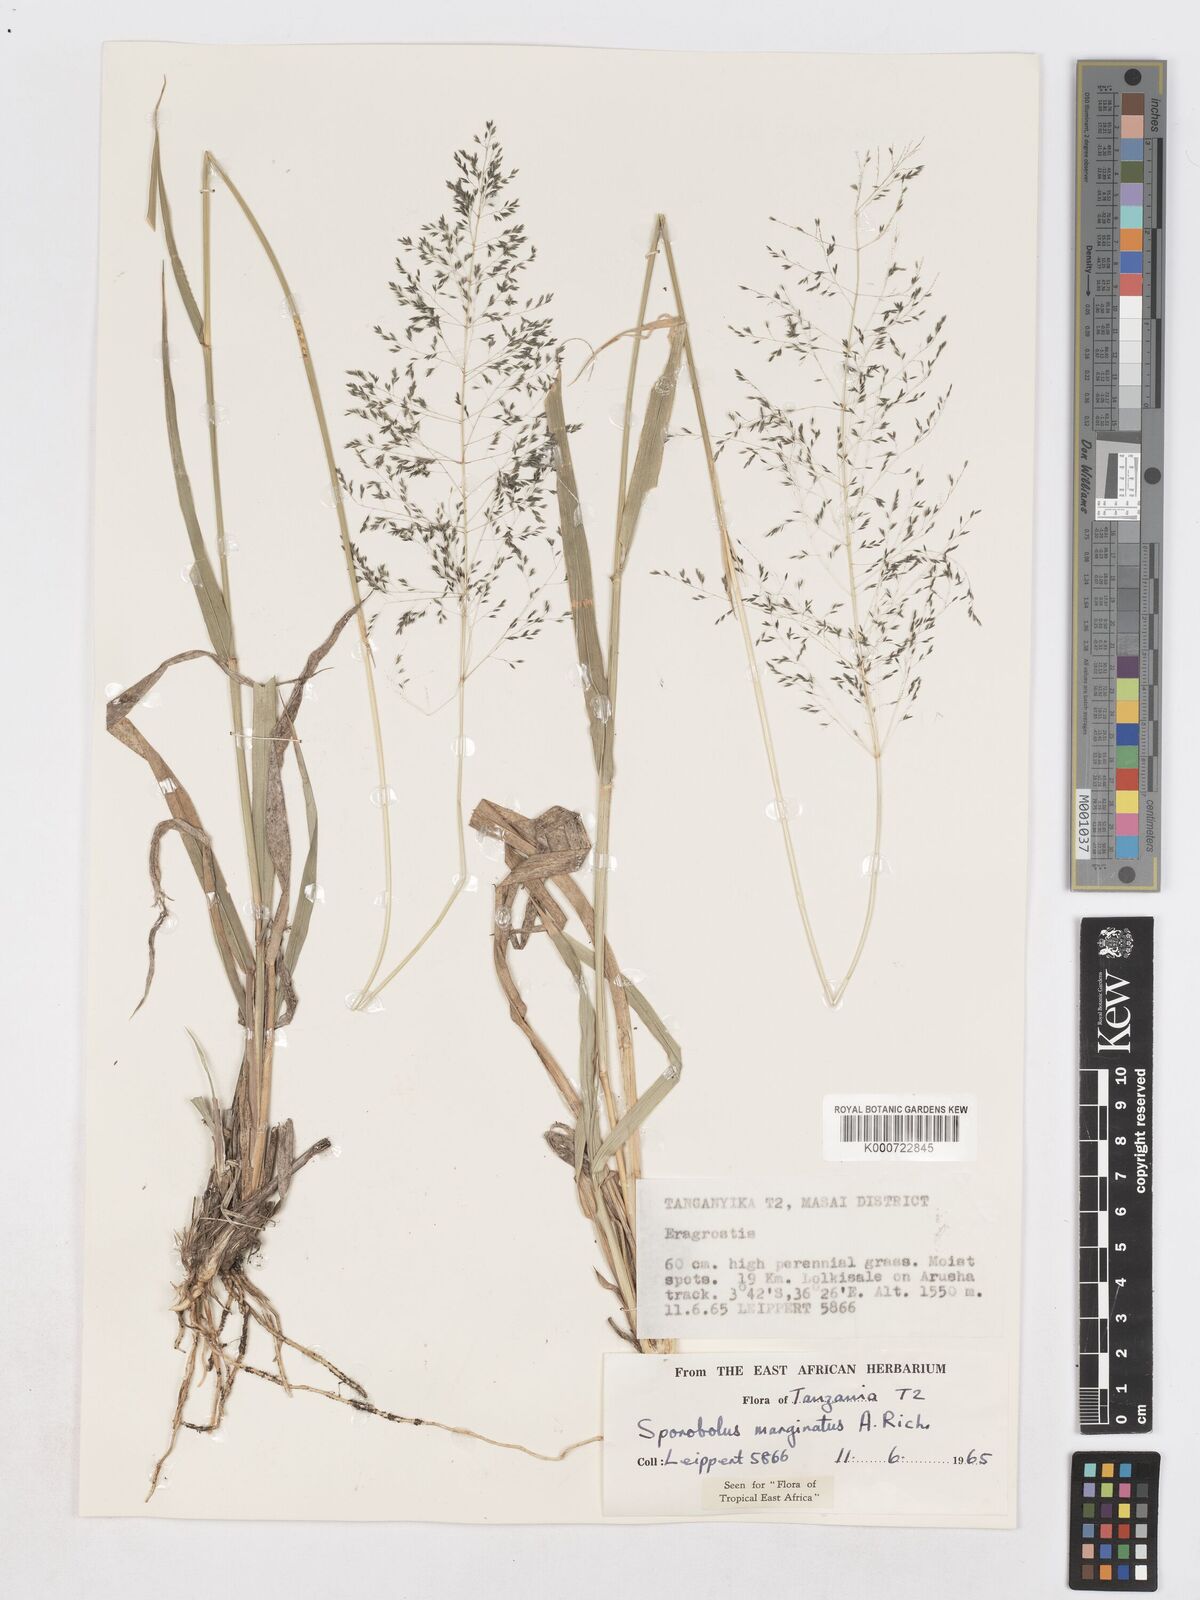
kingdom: Plantae
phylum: Tracheophyta
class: Liliopsida
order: Poales
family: Poaceae
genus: Sporobolus
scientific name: Sporobolus ioclados
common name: Pan dropseed
